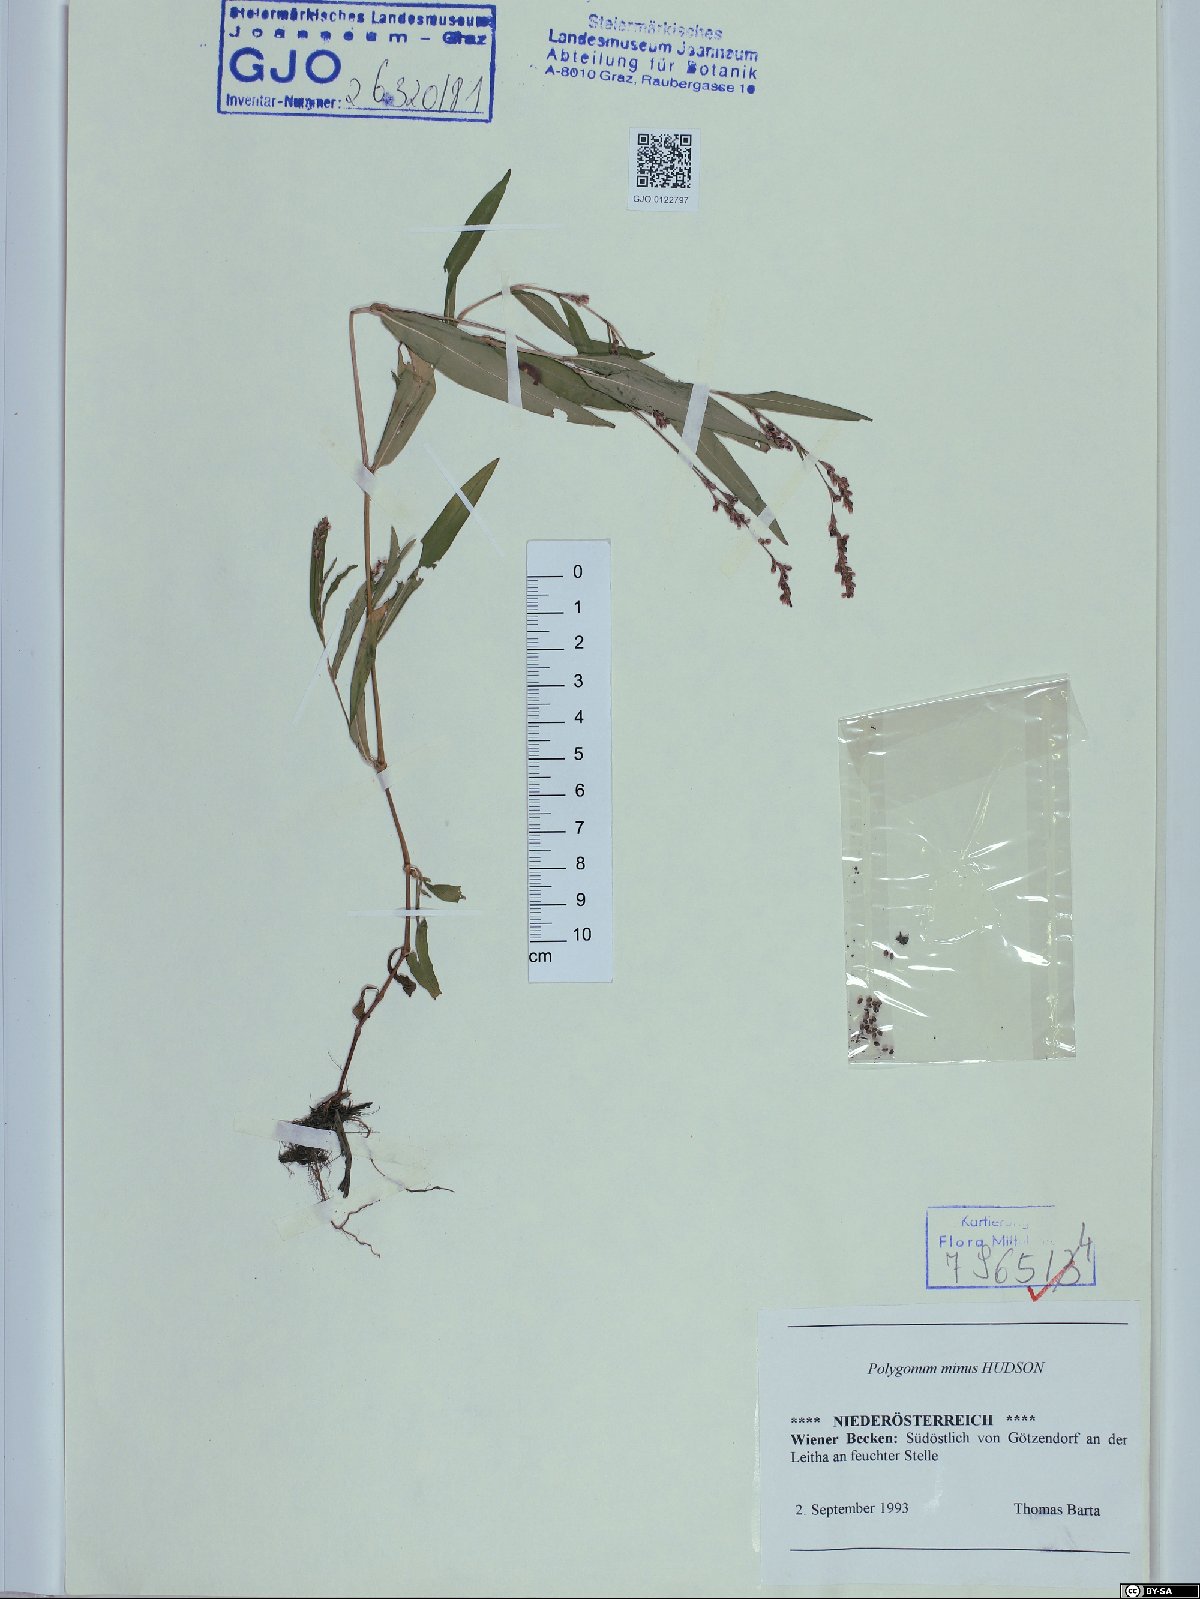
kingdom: Plantae
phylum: Tracheophyta
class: Magnoliopsida
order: Caryophyllales
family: Polygonaceae
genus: Persicaria
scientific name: Persicaria minor
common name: Small water-pepper
